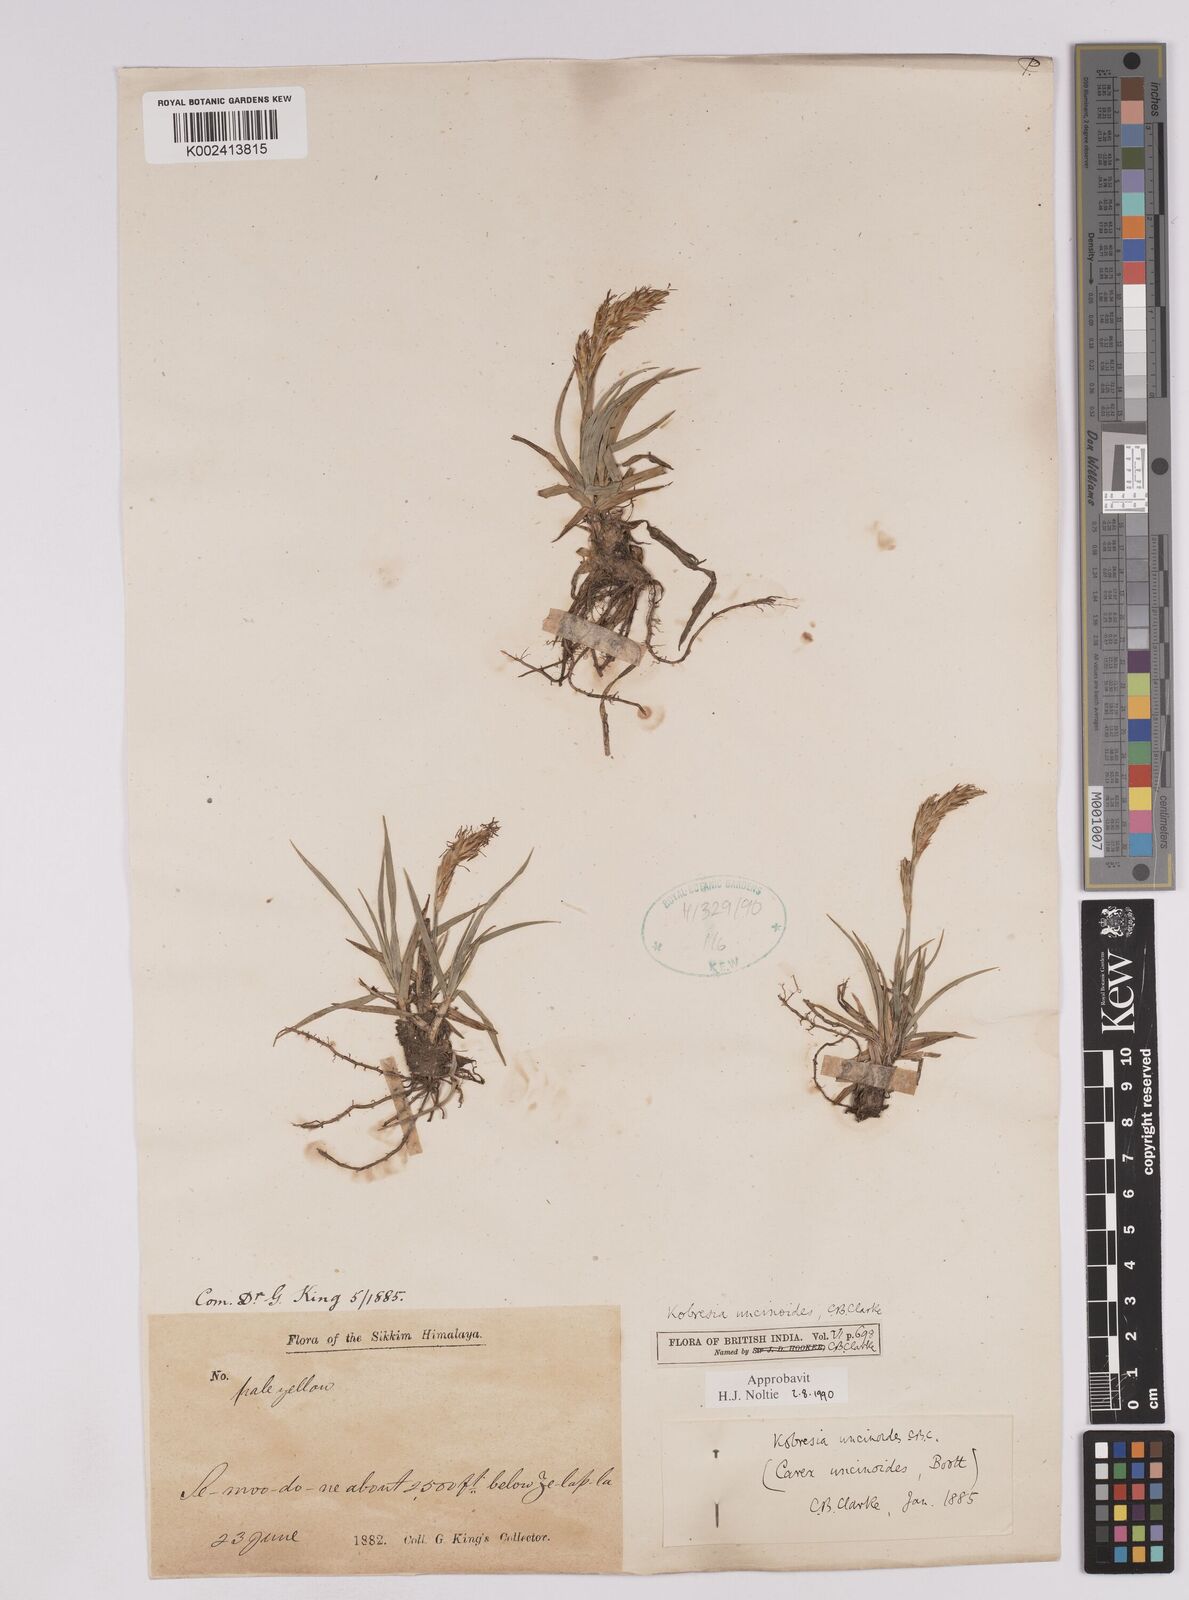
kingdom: Plantae
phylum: Tracheophyta
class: Liliopsida
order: Poales
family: Cyperaceae
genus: Carex
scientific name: Carex uncinioides
